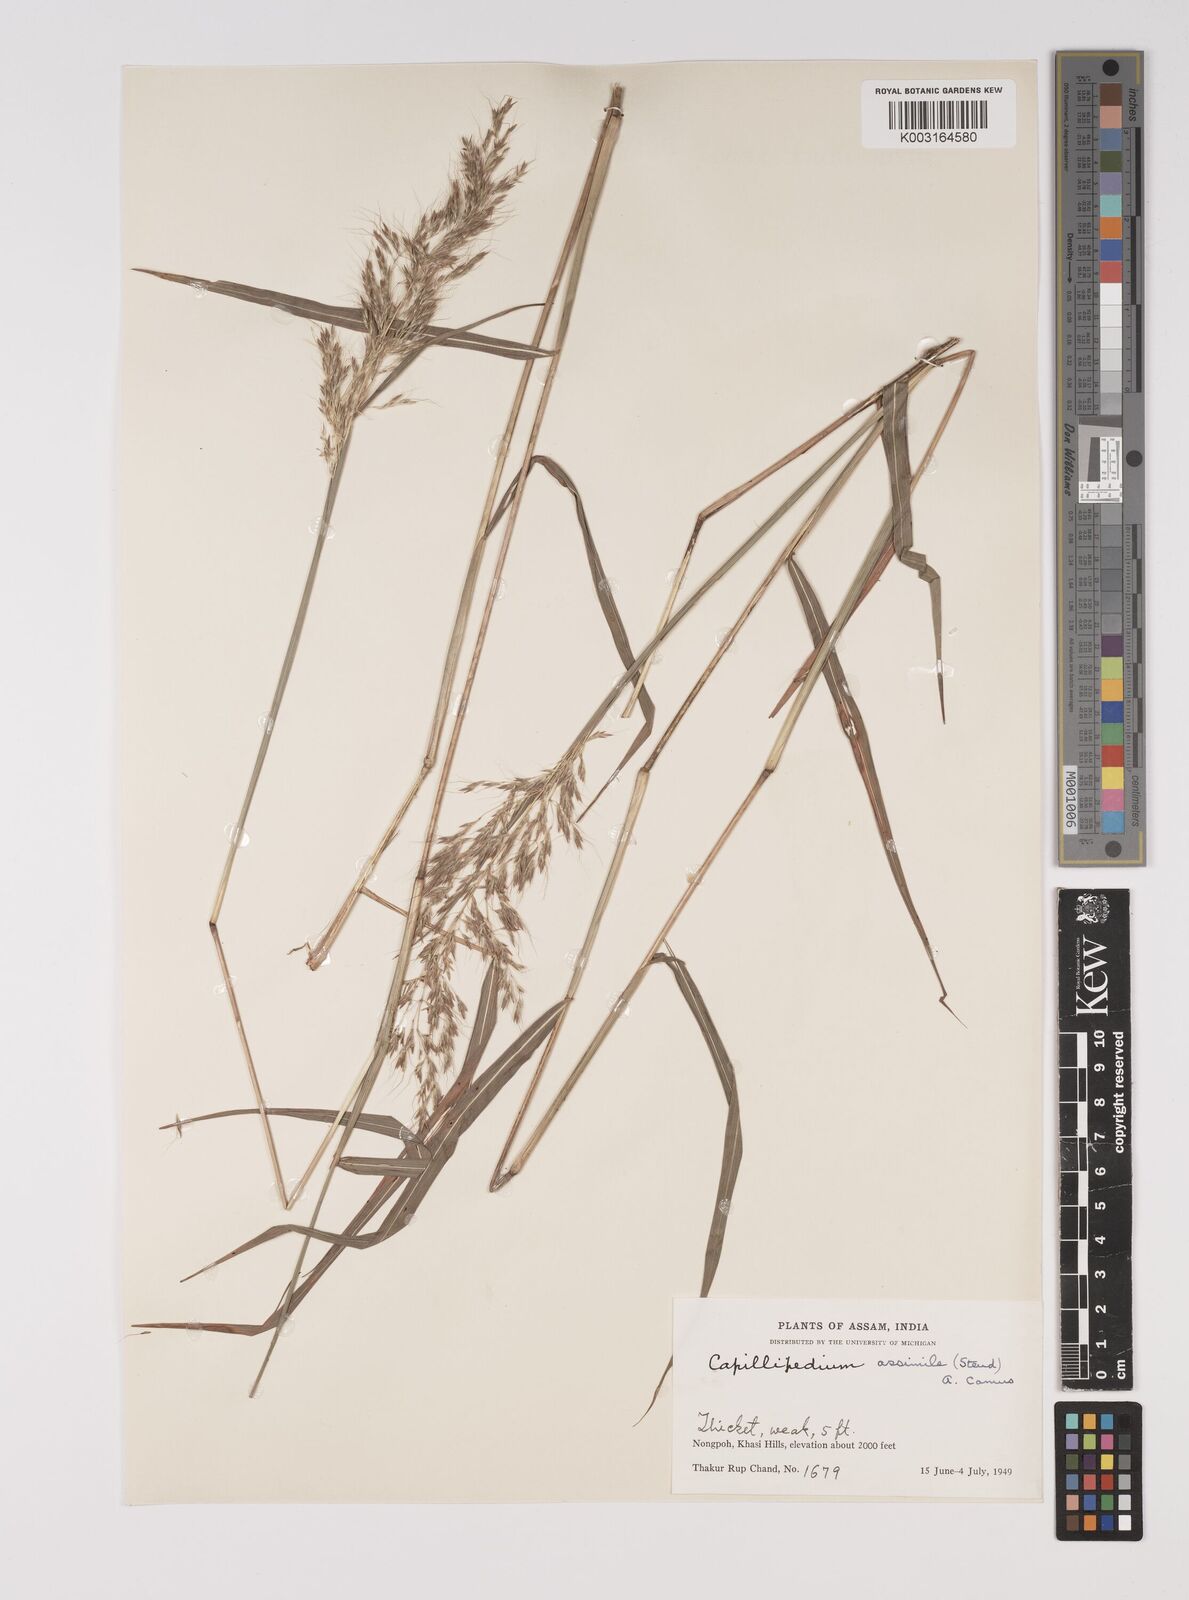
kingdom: Plantae
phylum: Tracheophyta
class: Liliopsida
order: Poales
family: Poaceae
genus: Capillipedium
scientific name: Capillipedium spicigerum
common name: Scented-top grass
